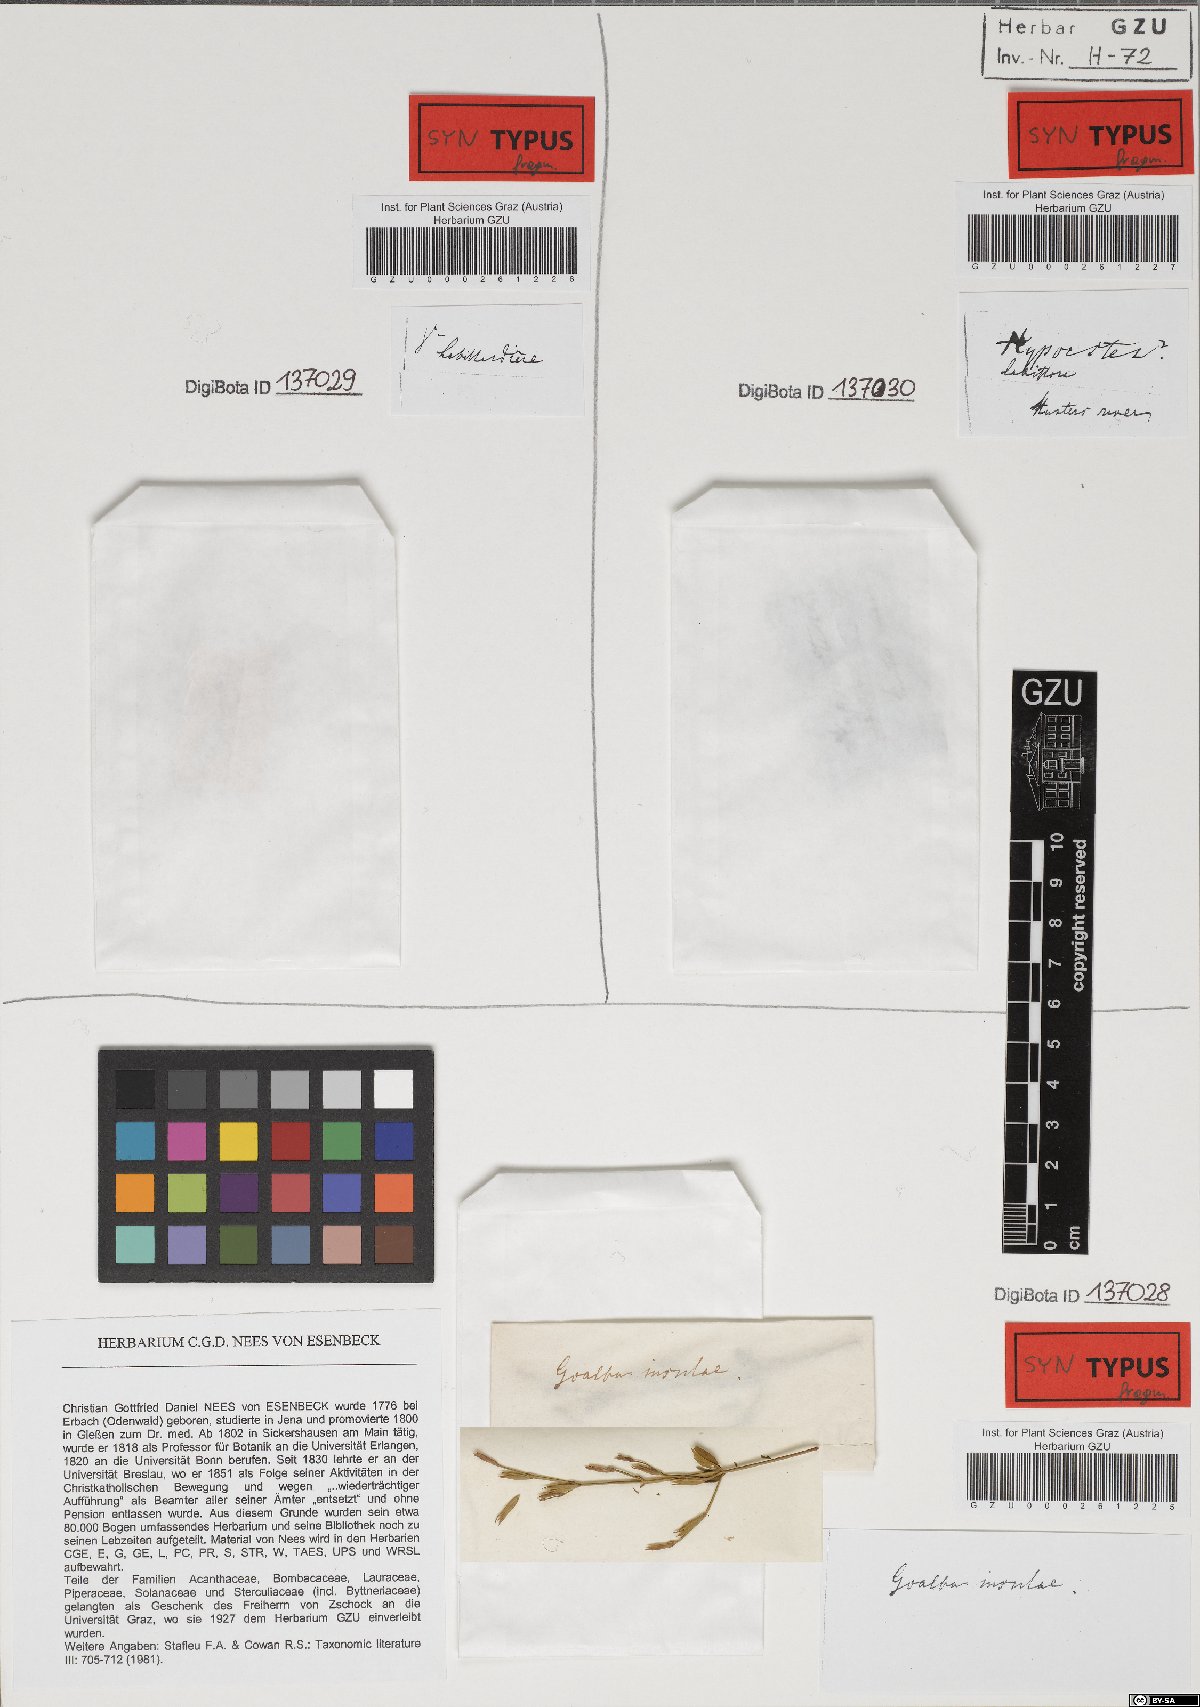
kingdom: Plantae
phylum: Tracheophyta
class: Magnoliopsida
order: Lamiales
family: Acanthaceae
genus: Hypoestes
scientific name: Hypoestes malaccensis
